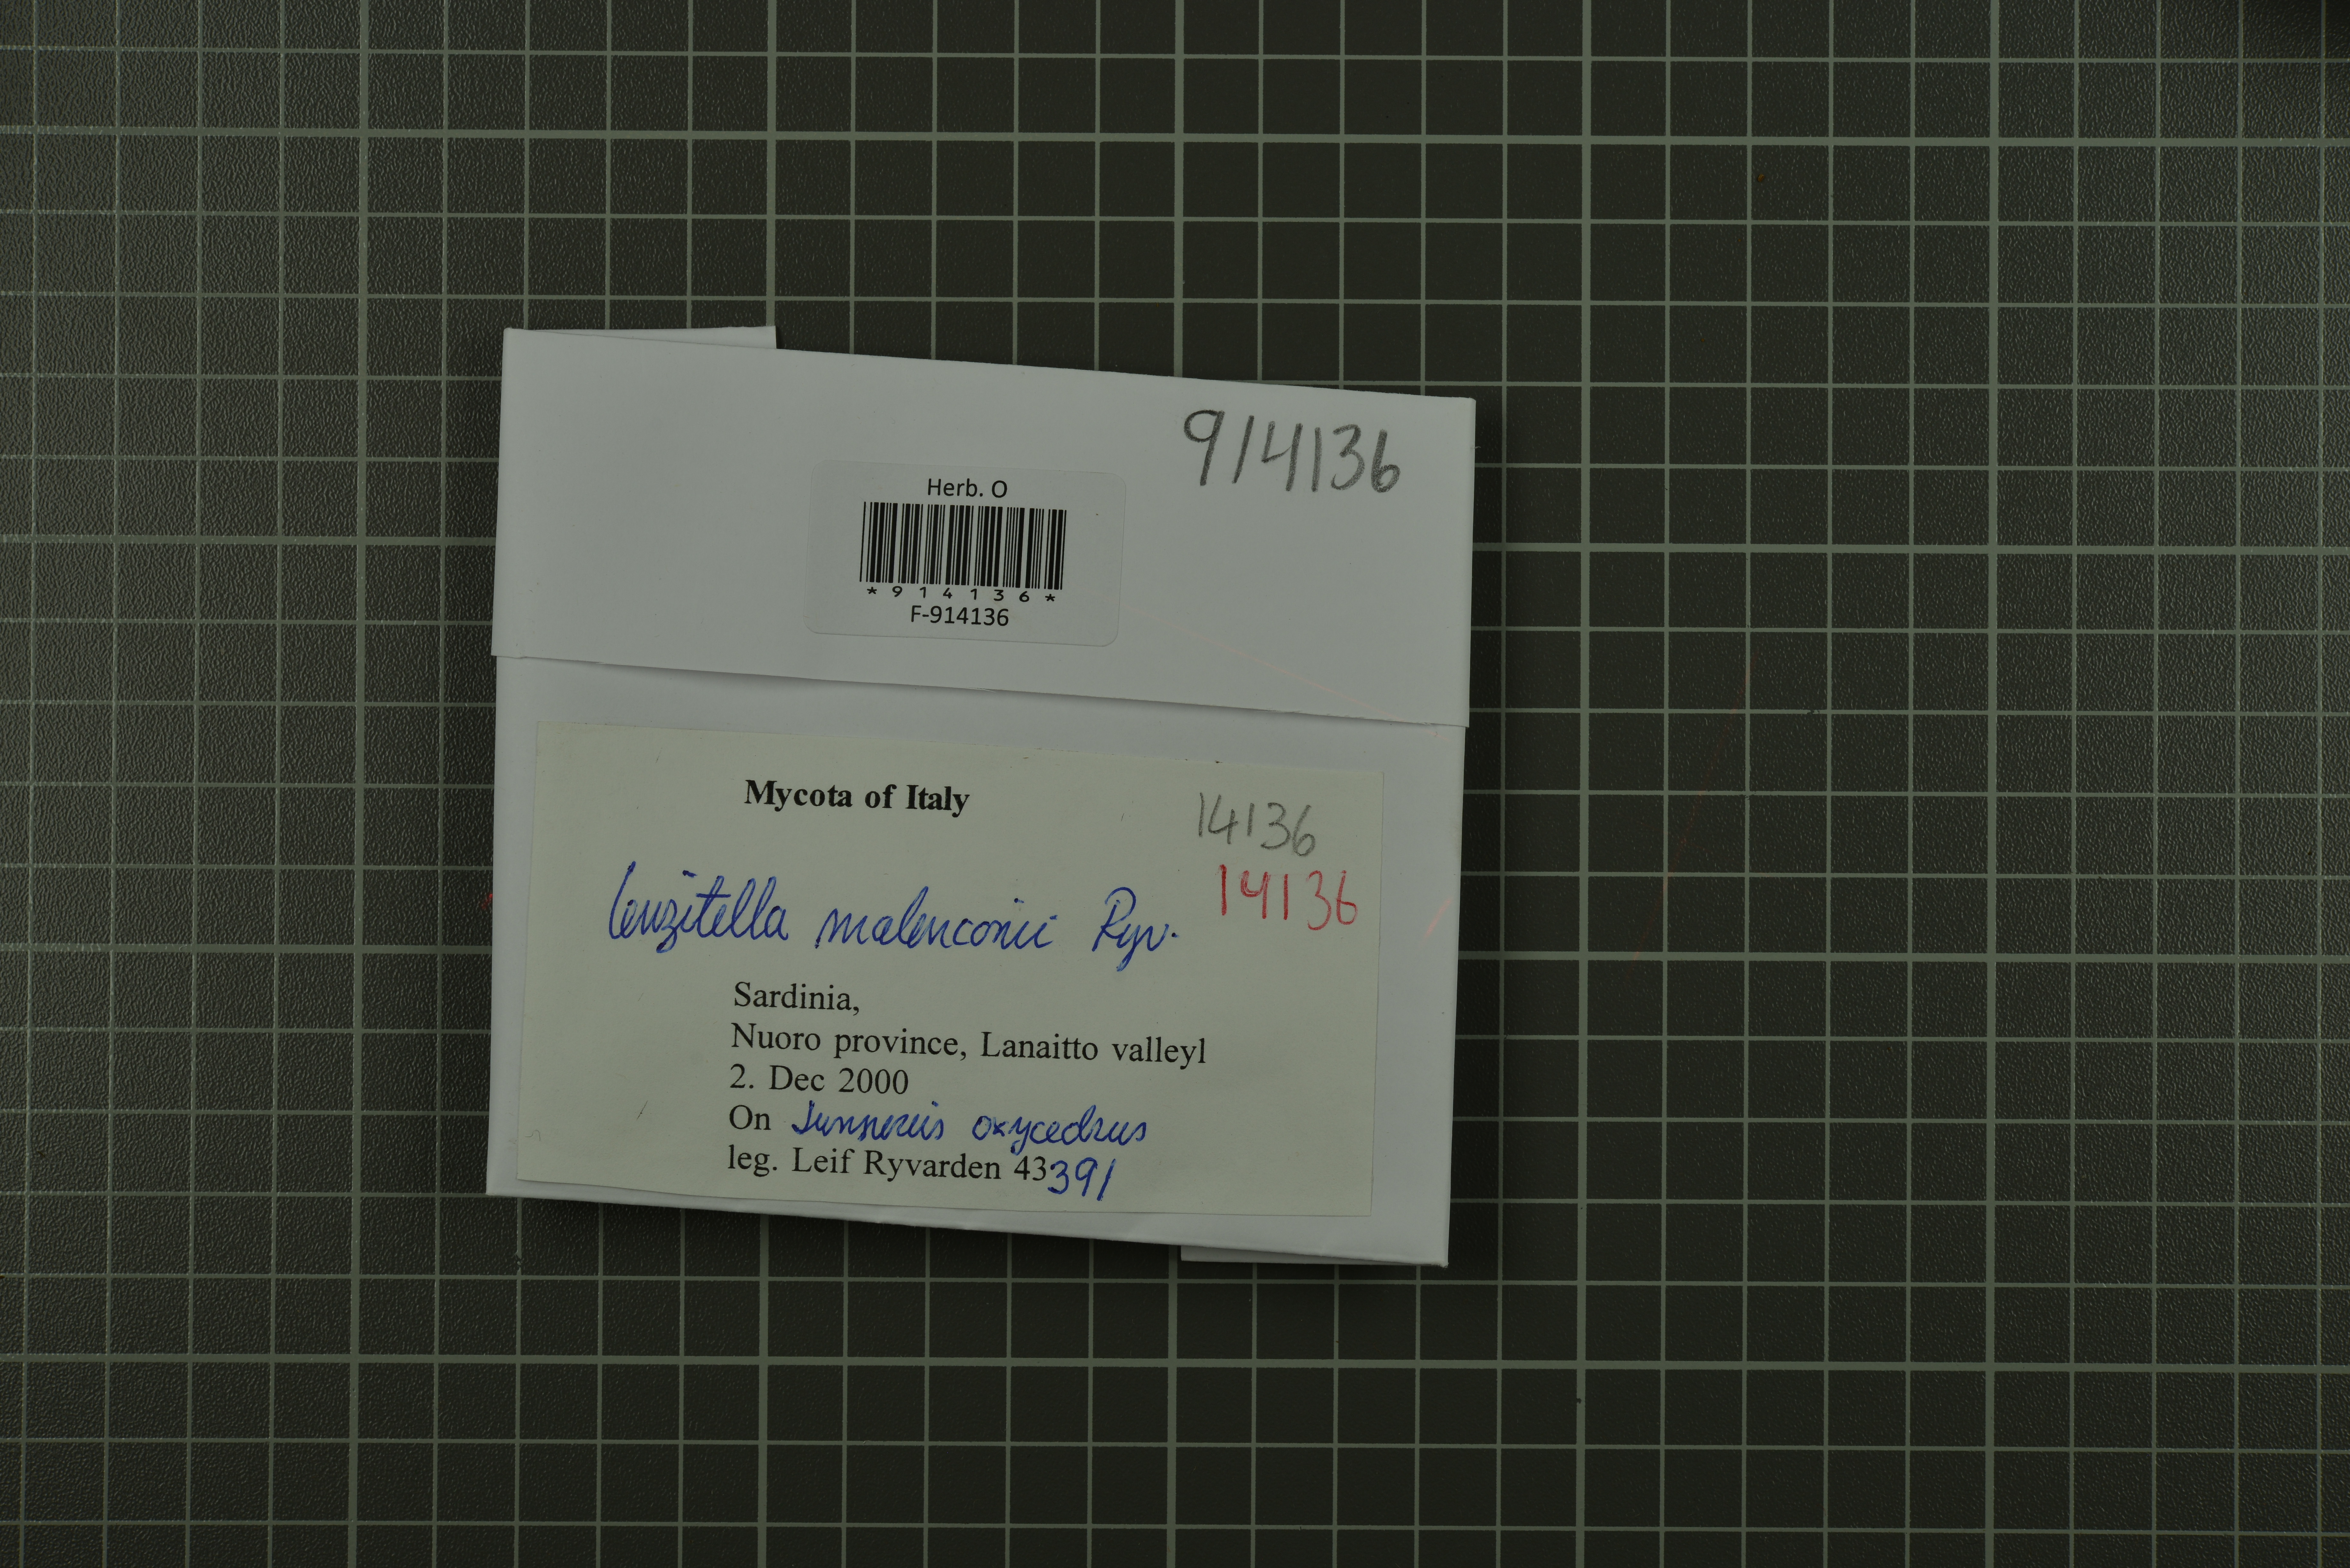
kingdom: Fungi
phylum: Basidiomycota
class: Agaricomycetes
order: Thelephorales
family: Thelephoraceae
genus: Lenzitopsis
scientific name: Lenzitopsis oxycedri
